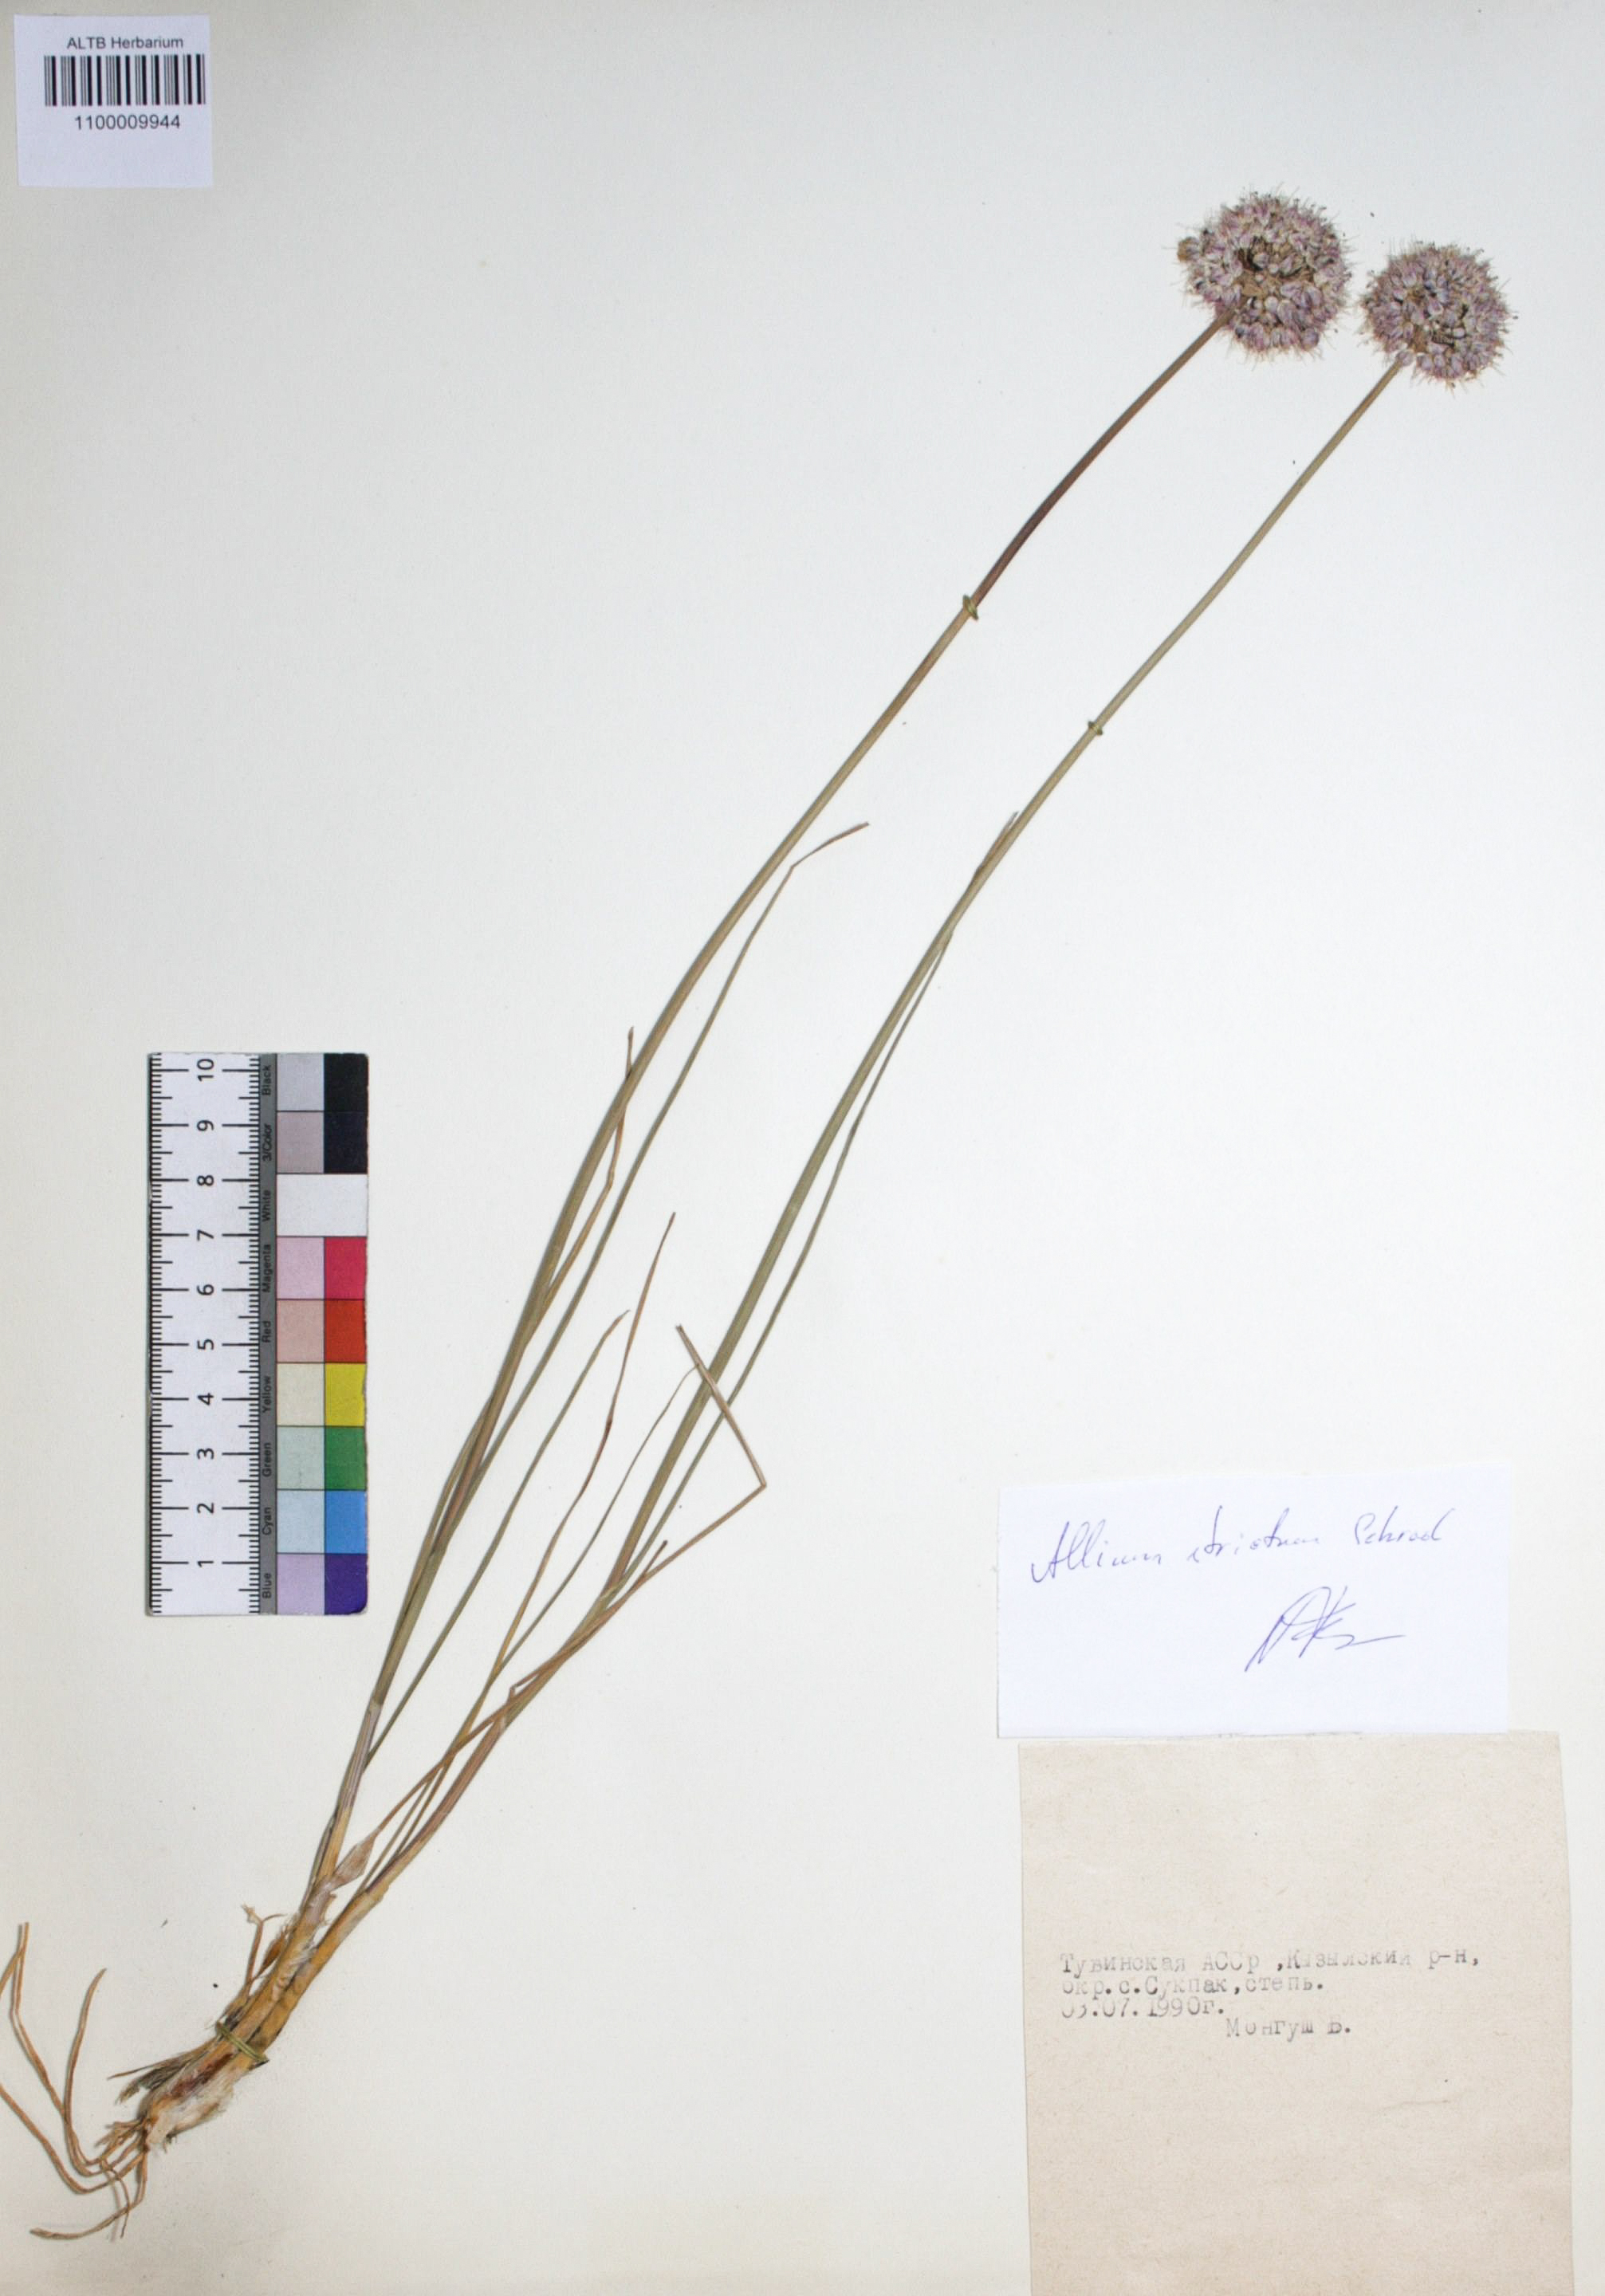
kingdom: Plantae
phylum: Tracheophyta
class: Liliopsida
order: Asparagales
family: Amaryllidaceae
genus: Allium
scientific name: Allium strictum
